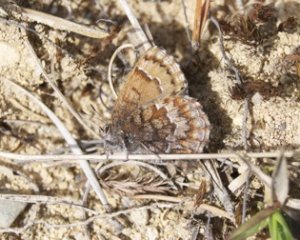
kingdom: Animalia
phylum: Arthropoda
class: Insecta
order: Lepidoptera
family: Lycaenidae
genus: Incisalia
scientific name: Incisalia niphon
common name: Eastern Pine Elfin
